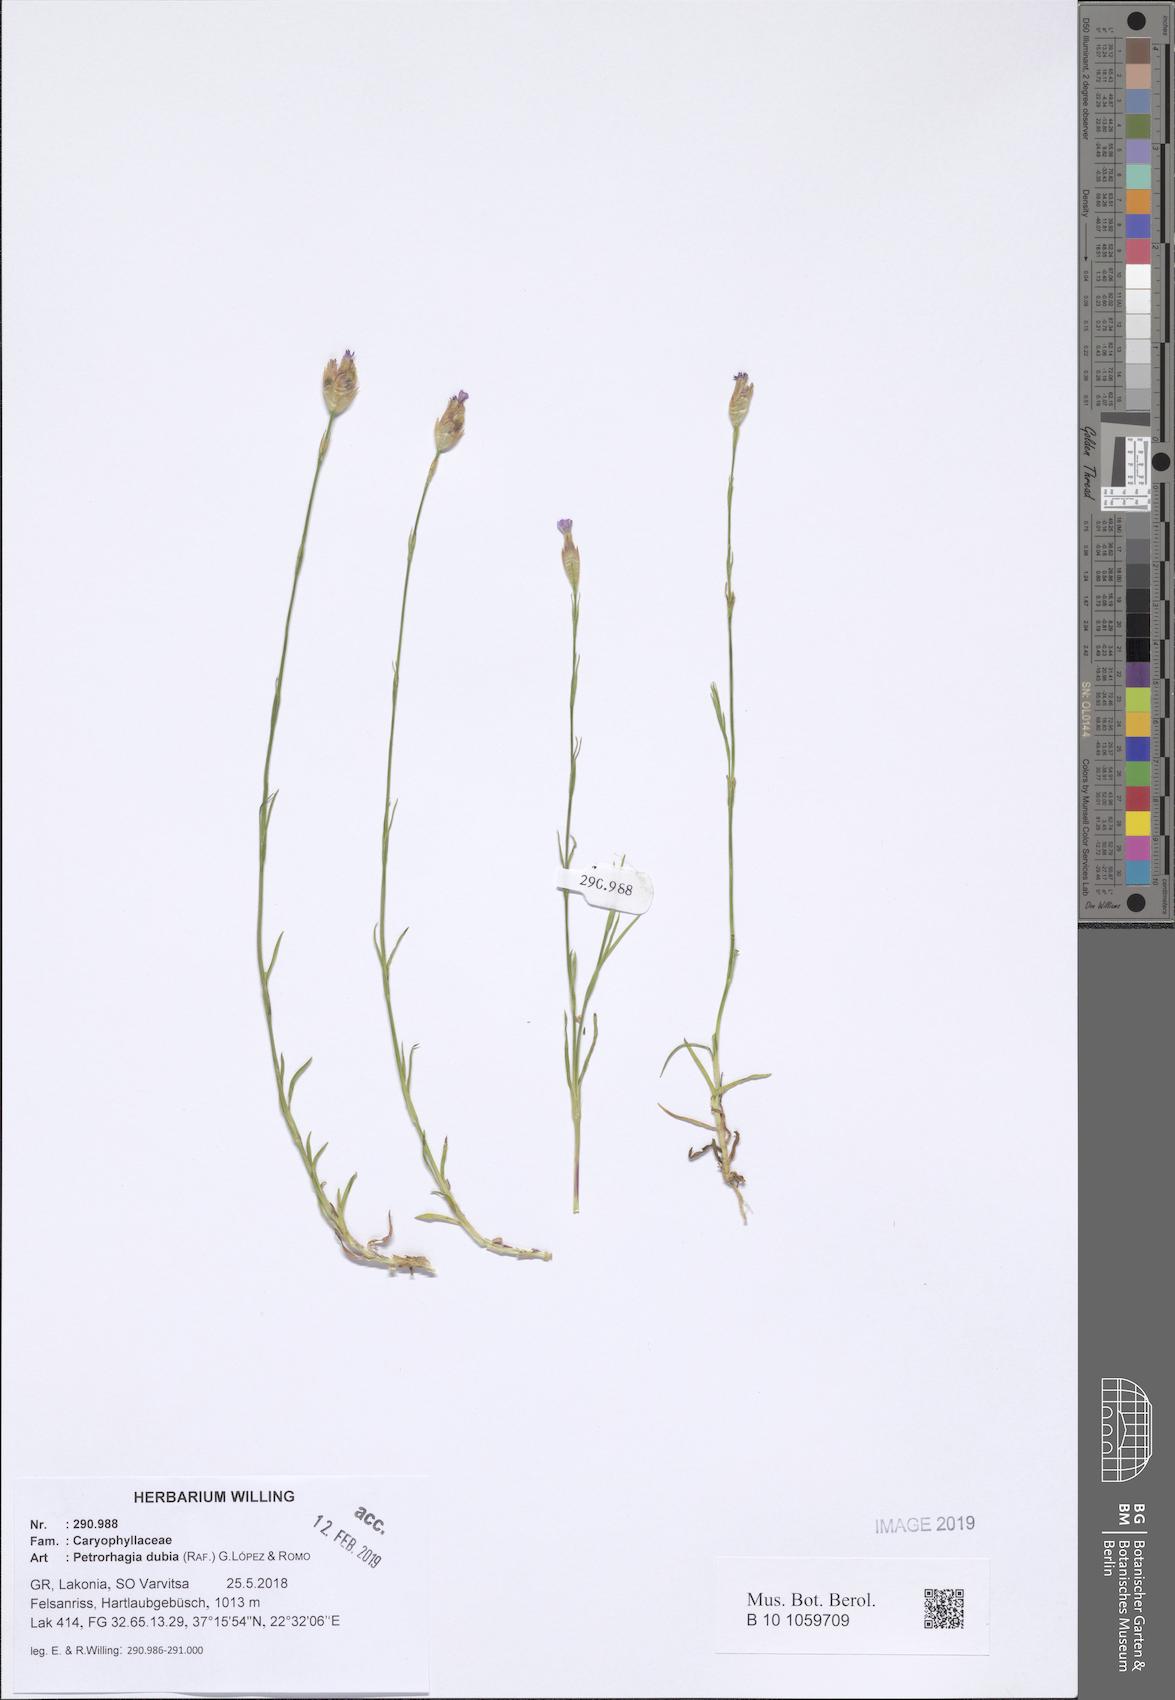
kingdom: Plantae
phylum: Tracheophyta
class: Magnoliopsida
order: Caryophyllales
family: Caryophyllaceae
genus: Petrorhagia
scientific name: Petrorhagia dubia
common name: Hairypink
